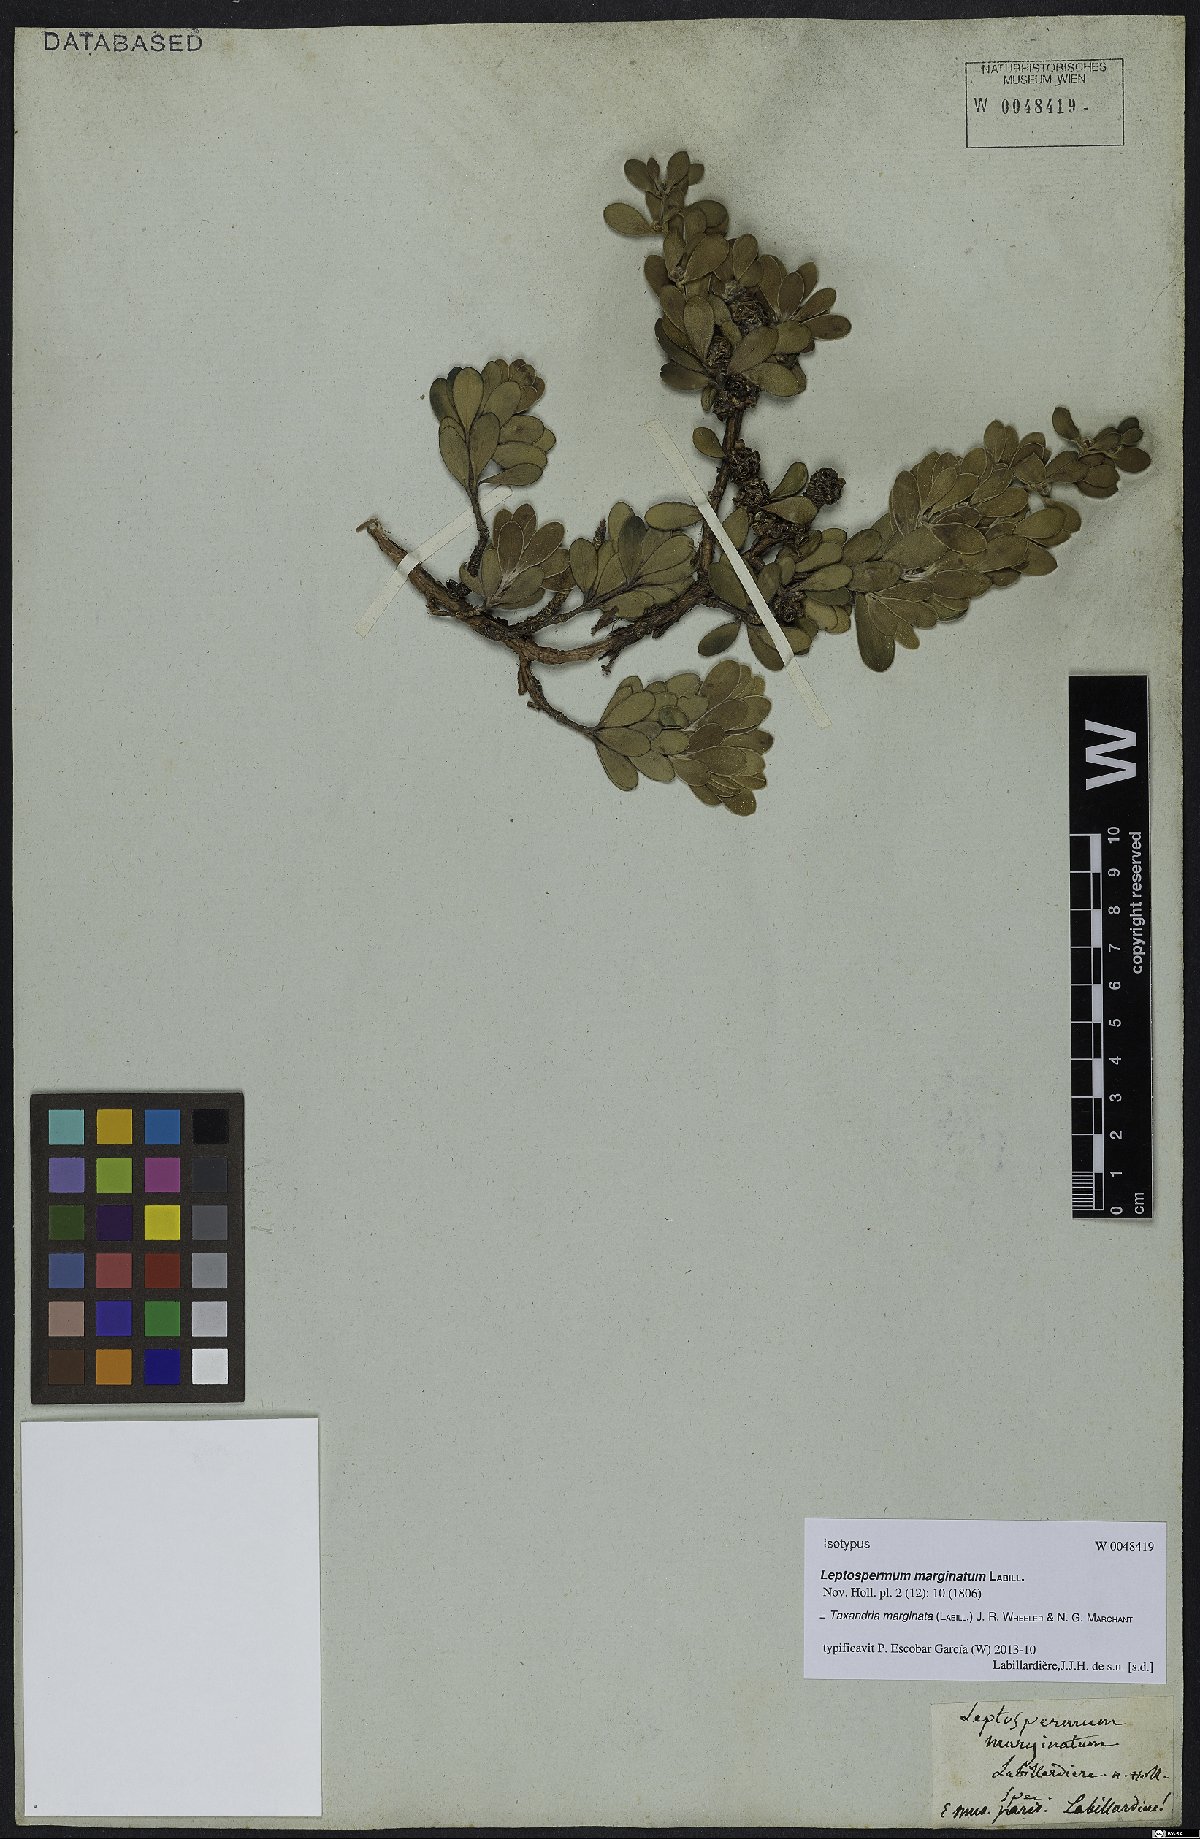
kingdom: Plantae
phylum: Tracheophyta
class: Magnoliopsida
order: Myrtales
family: Myrtaceae
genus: Taxandria
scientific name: Taxandria marginata
